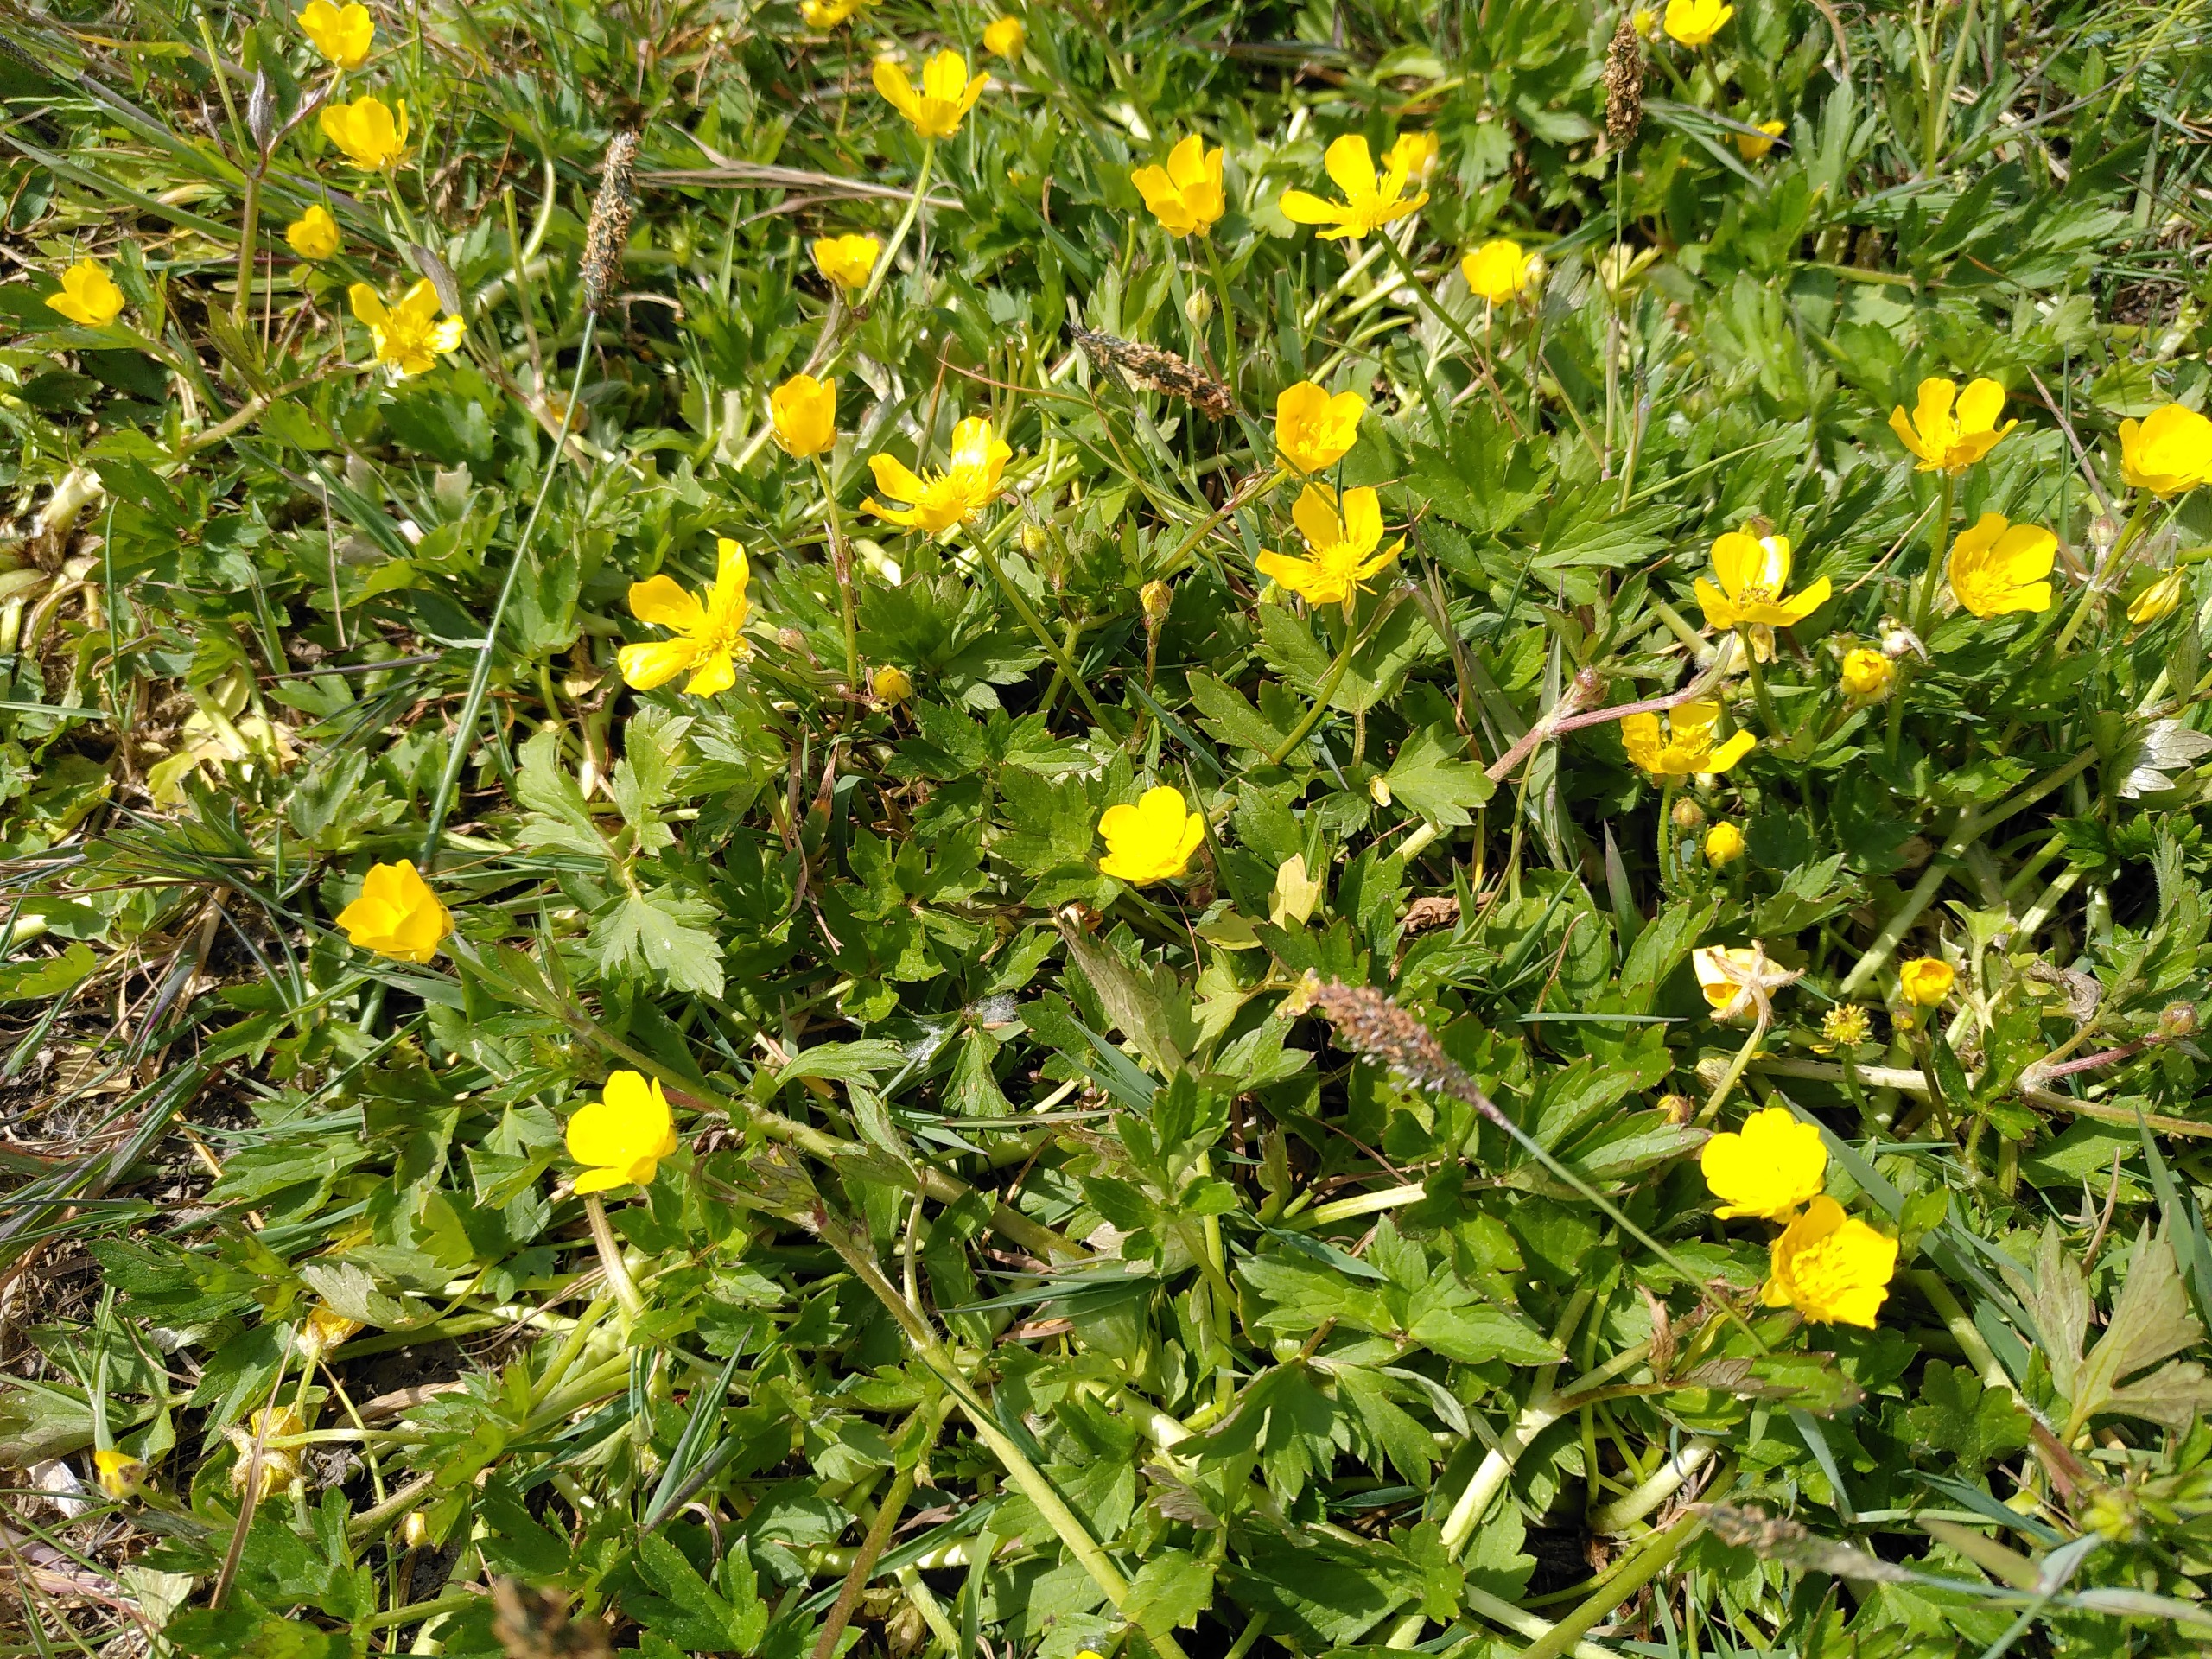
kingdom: Plantae
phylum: Tracheophyta
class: Magnoliopsida
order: Ranunculales
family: Ranunculaceae
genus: Ranunculus
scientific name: Ranunculus repens
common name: Lav ranunkel
